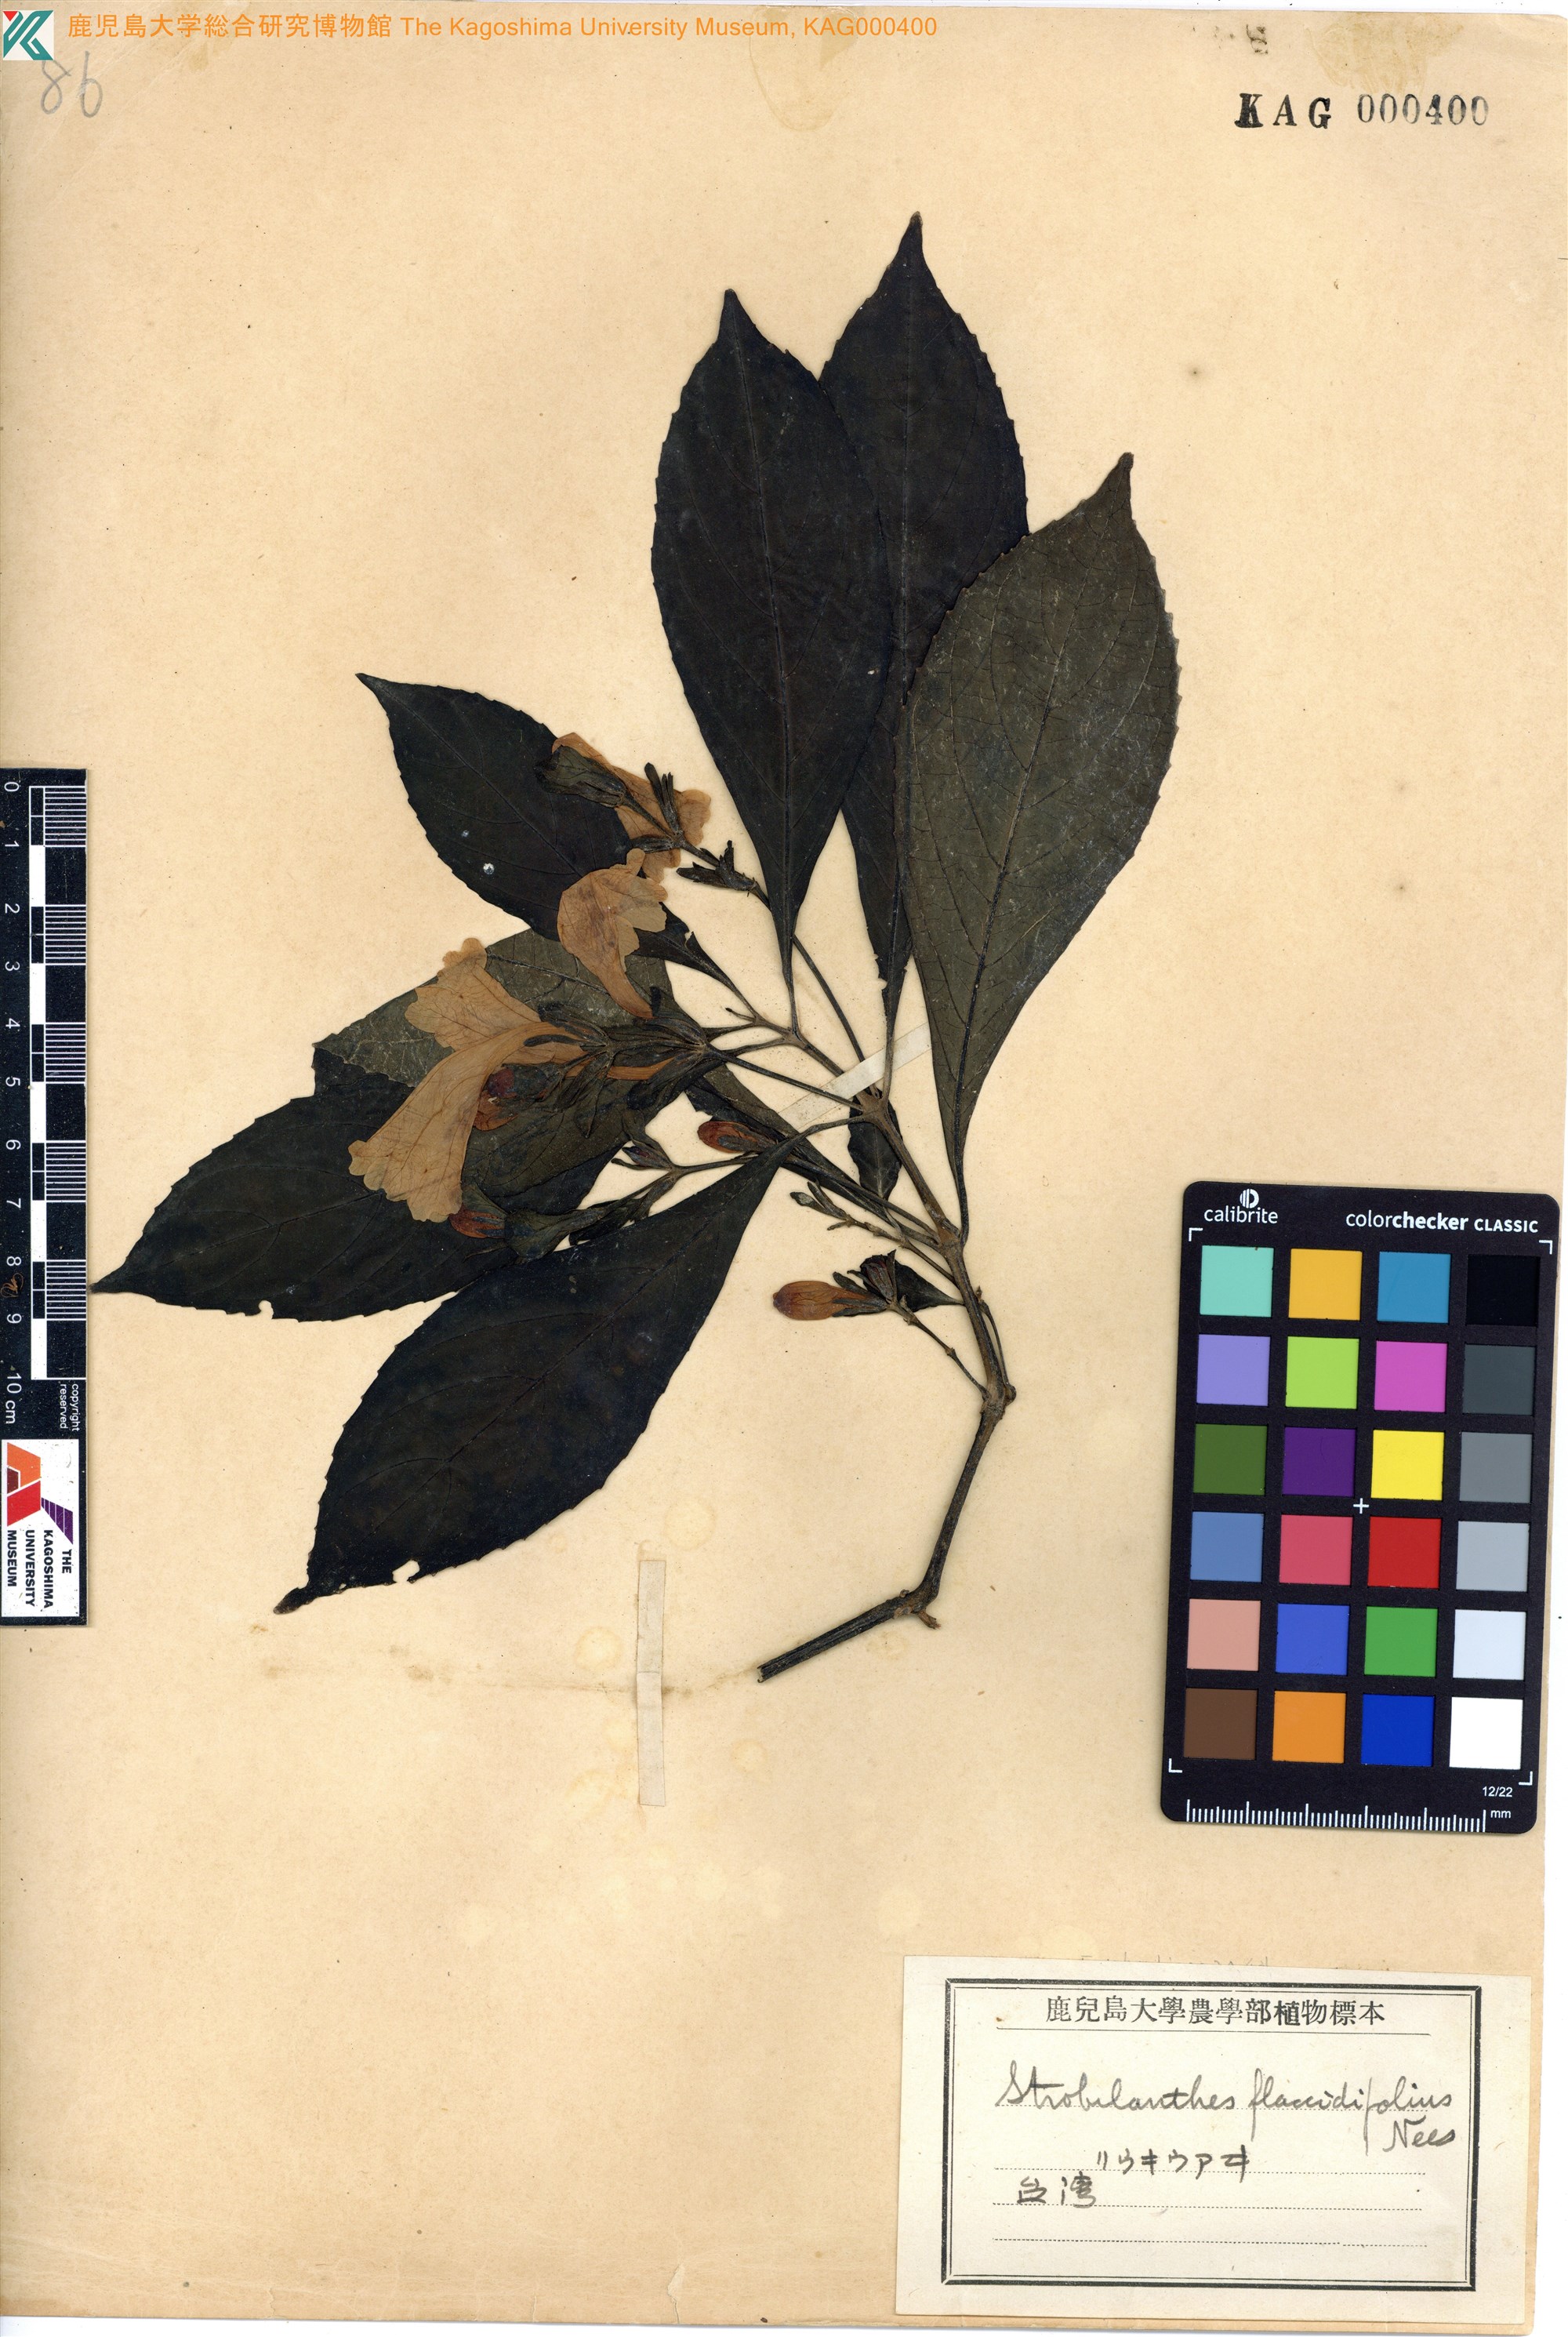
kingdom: Plantae
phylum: Tracheophyta
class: Magnoliopsida
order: Lamiales
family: Acanthaceae
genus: Strobilanthes
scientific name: Strobilanthes cusia
